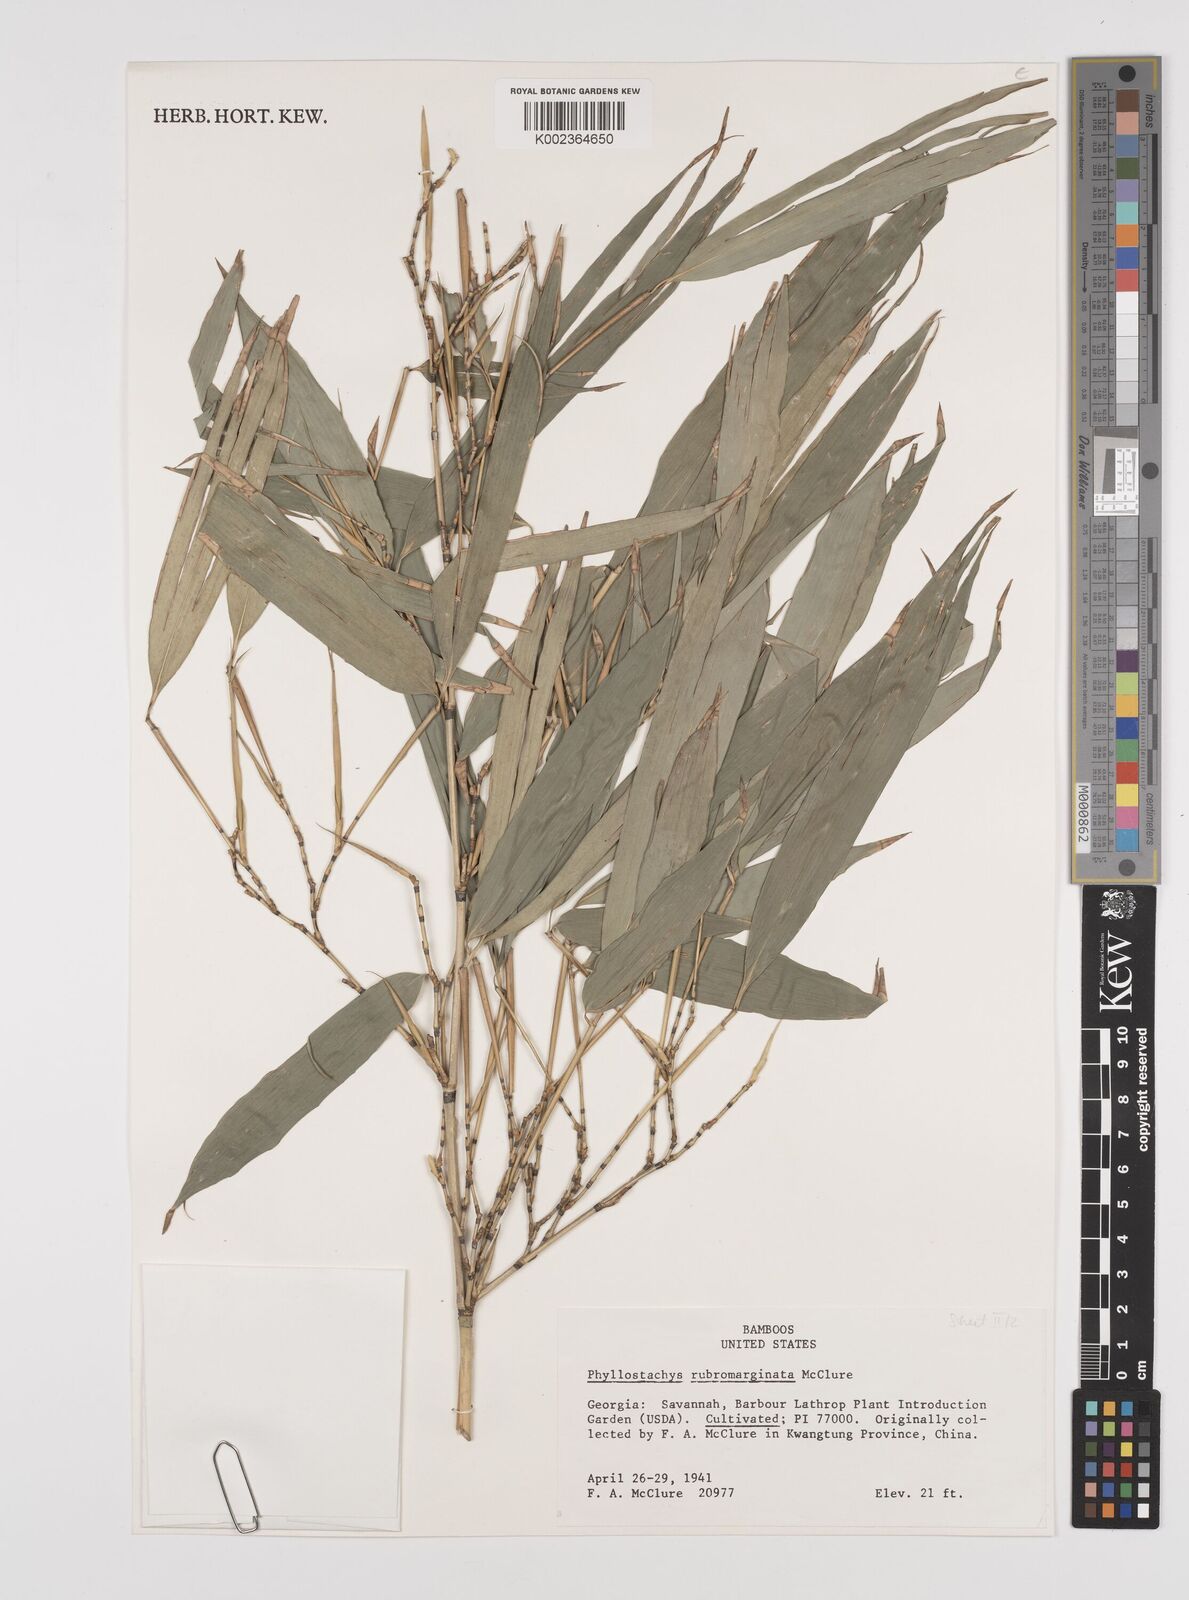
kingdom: Plantae
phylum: Tracheophyta
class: Liliopsida
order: Poales
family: Poaceae
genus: Phyllostachys
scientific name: Phyllostachys rubromarginata
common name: Reddish bamboo
